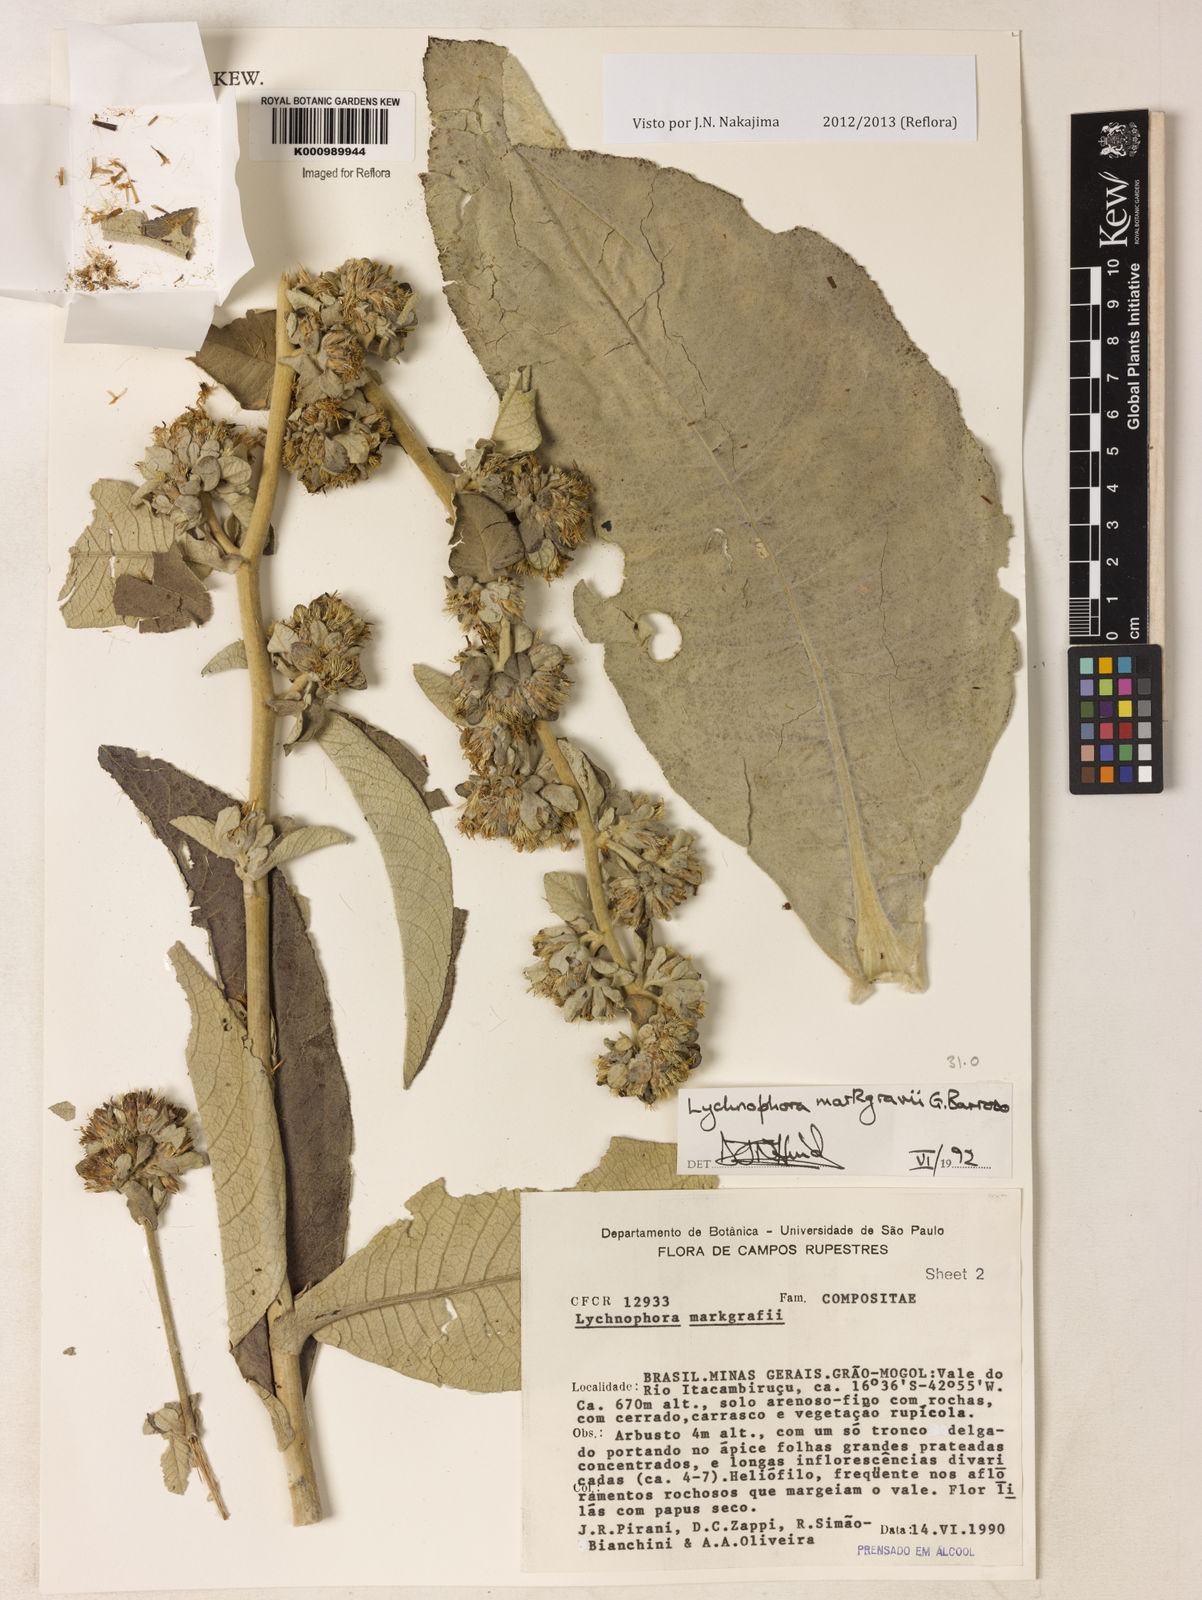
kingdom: Plantae
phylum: Tracheophyta
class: Magnoliopsida
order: Asterales
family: Asteraceae
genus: Lychnophora
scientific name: Lychnophora
